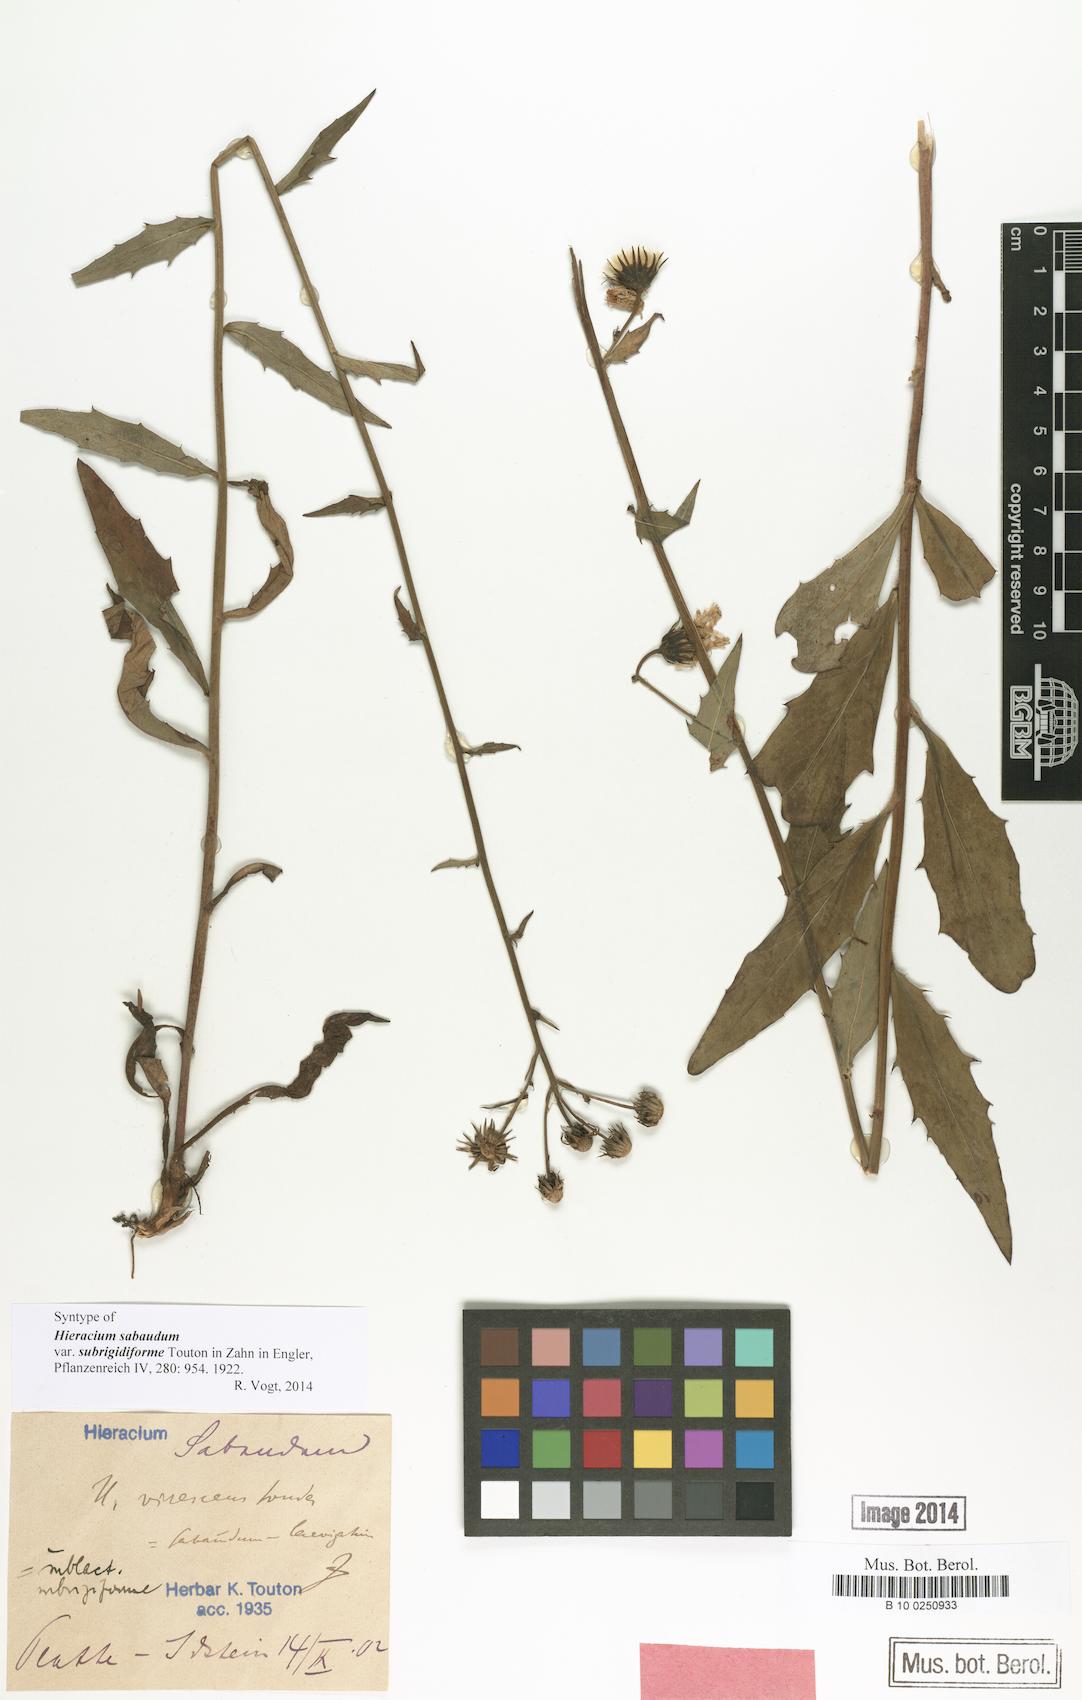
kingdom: Plantae
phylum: Tracheophyta
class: Magnoliopsida
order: Asterales
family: Asteraceae
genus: Hieracium
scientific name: Hieracium sabaudum
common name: New england hawkweed
